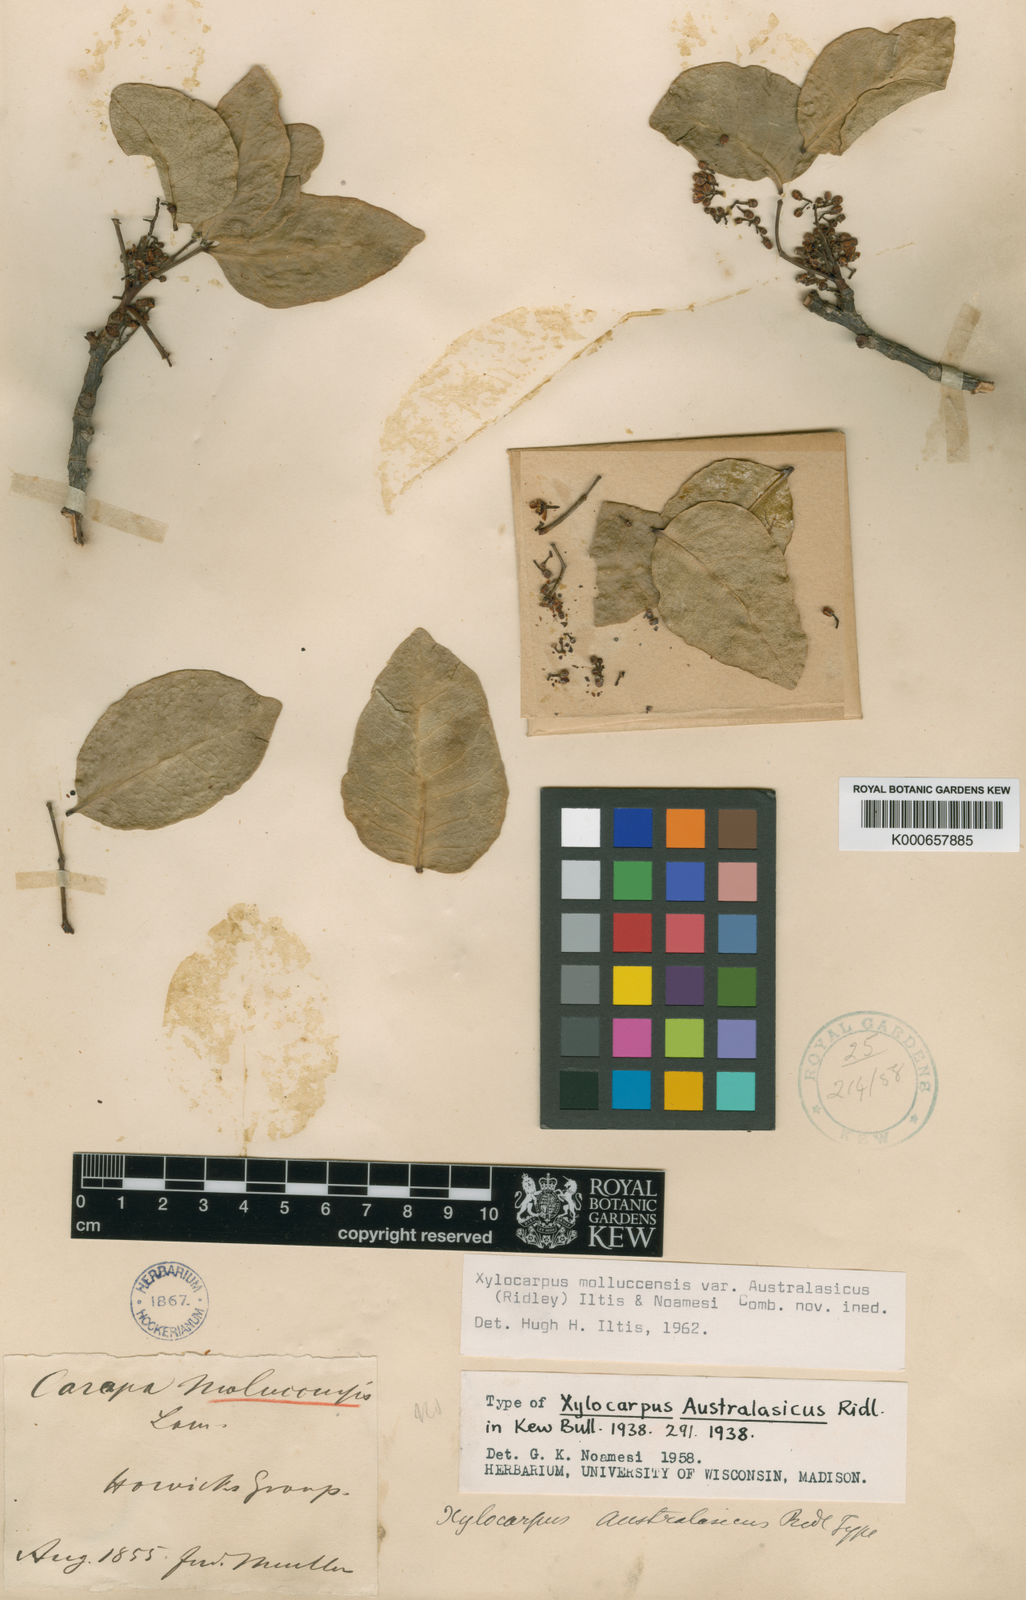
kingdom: Plantae
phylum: Tracheophyta
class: Magnoliopsida
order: Sapindales
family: Meliaceae
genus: Xylocarpus
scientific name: Xylocarpus moluccensis
